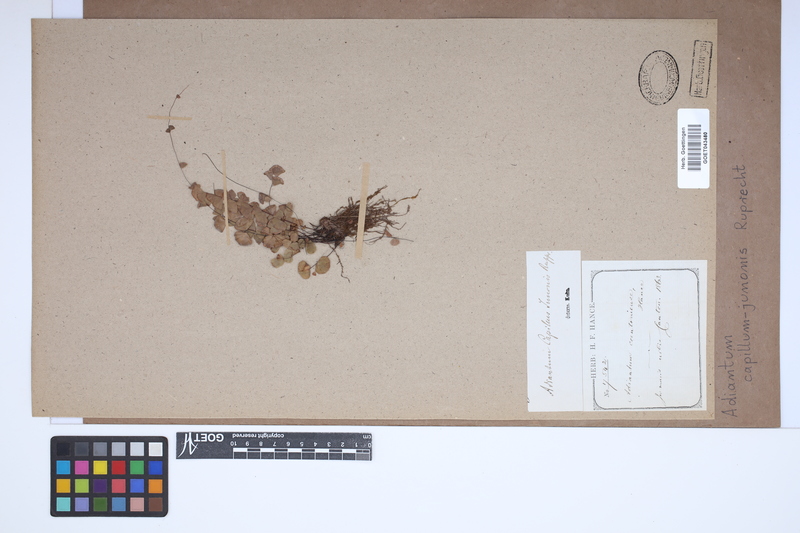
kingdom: Plantae
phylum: Tracheophyta
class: Polypodiopsida
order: Polypodiales
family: Pteridaceae
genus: Adiantum
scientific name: Adiantum capillus-junonis
